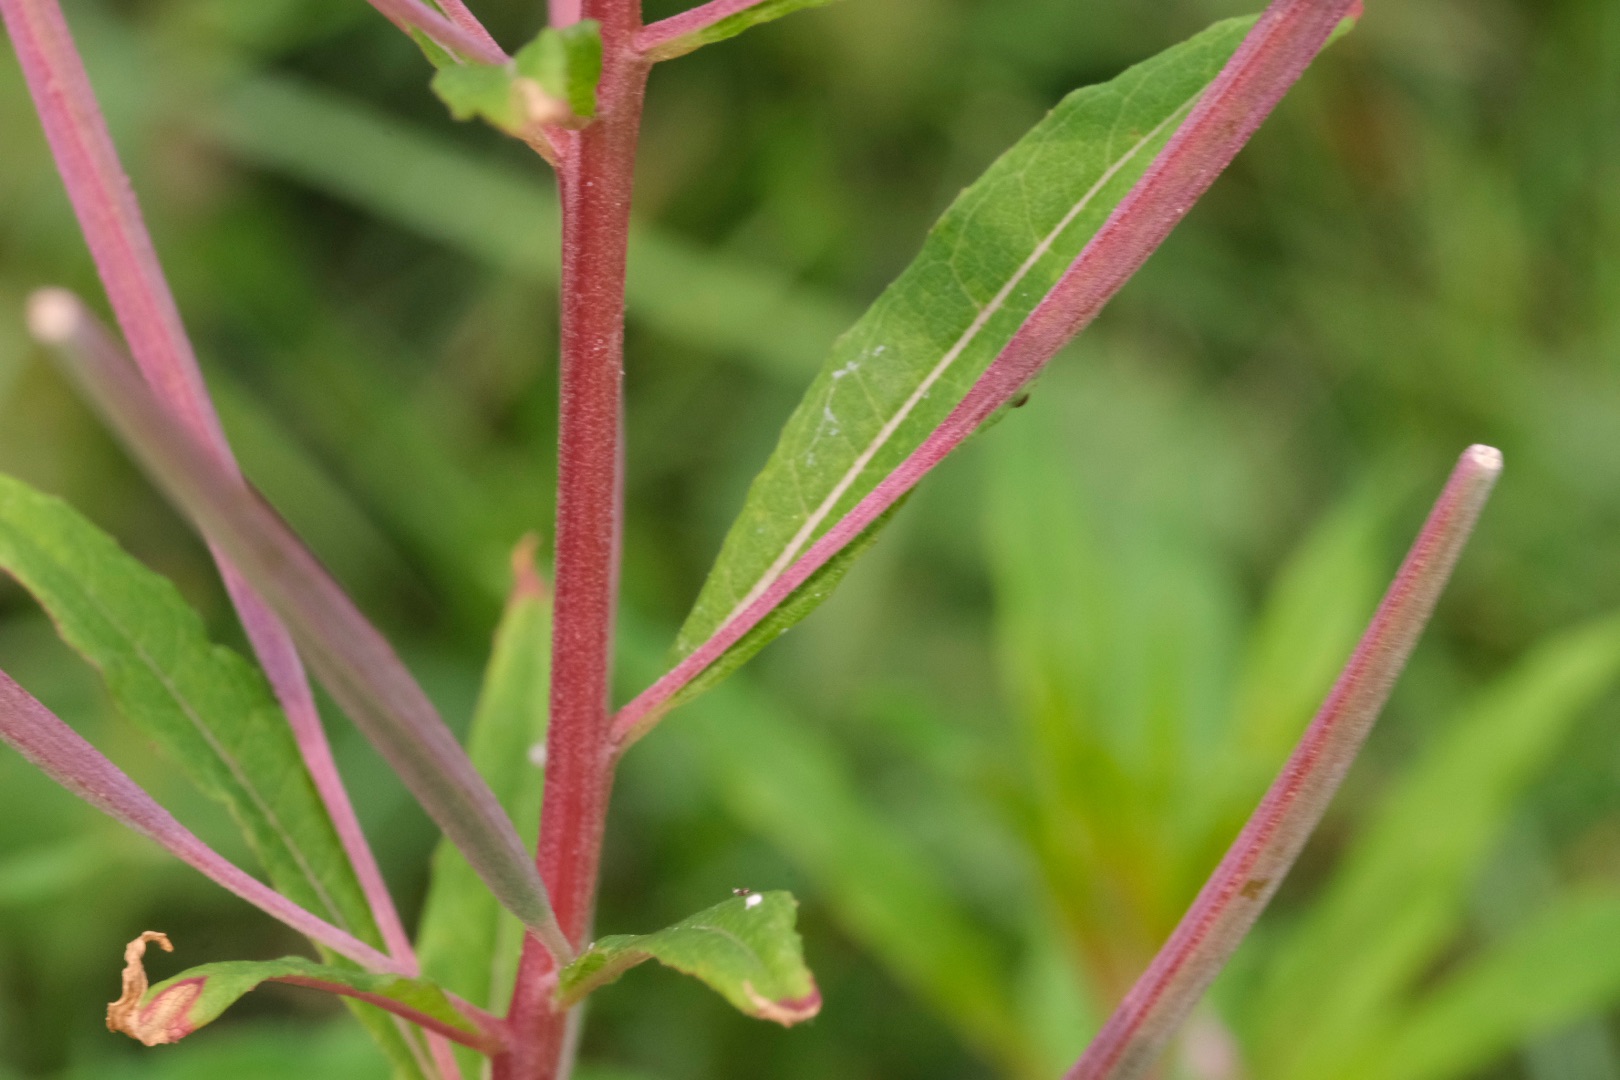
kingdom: Plantae
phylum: Tracheophyta
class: Magnoliopsida
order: Myrtales
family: Onagraceae
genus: Chamaenerion
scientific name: Chamaenerion angustifolium
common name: Gederams
